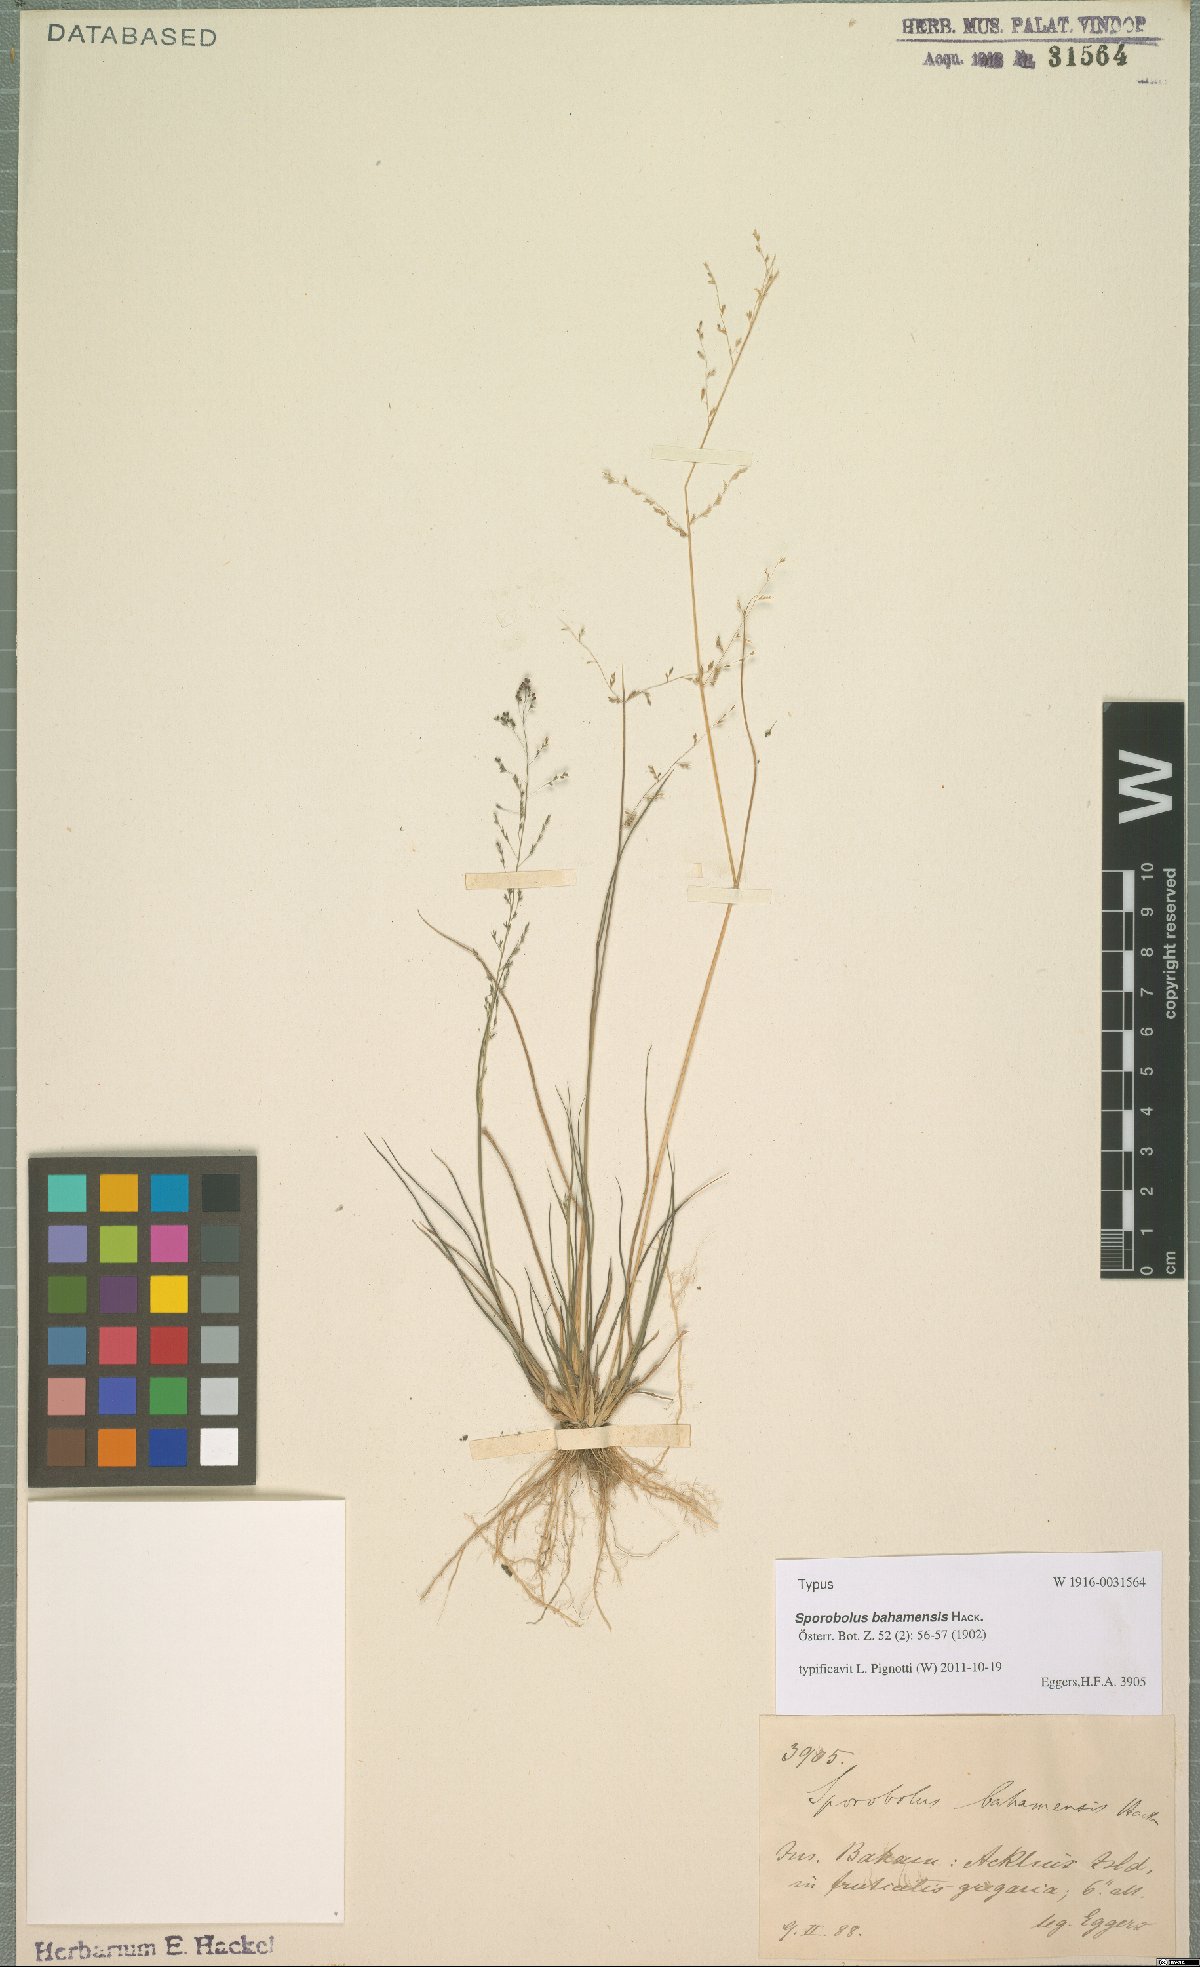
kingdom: Plantae
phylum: Tracheophyta
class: Liliopsida
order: Poales
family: Poaceae
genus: Sporobolus
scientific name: Sporobolus bahamensis
